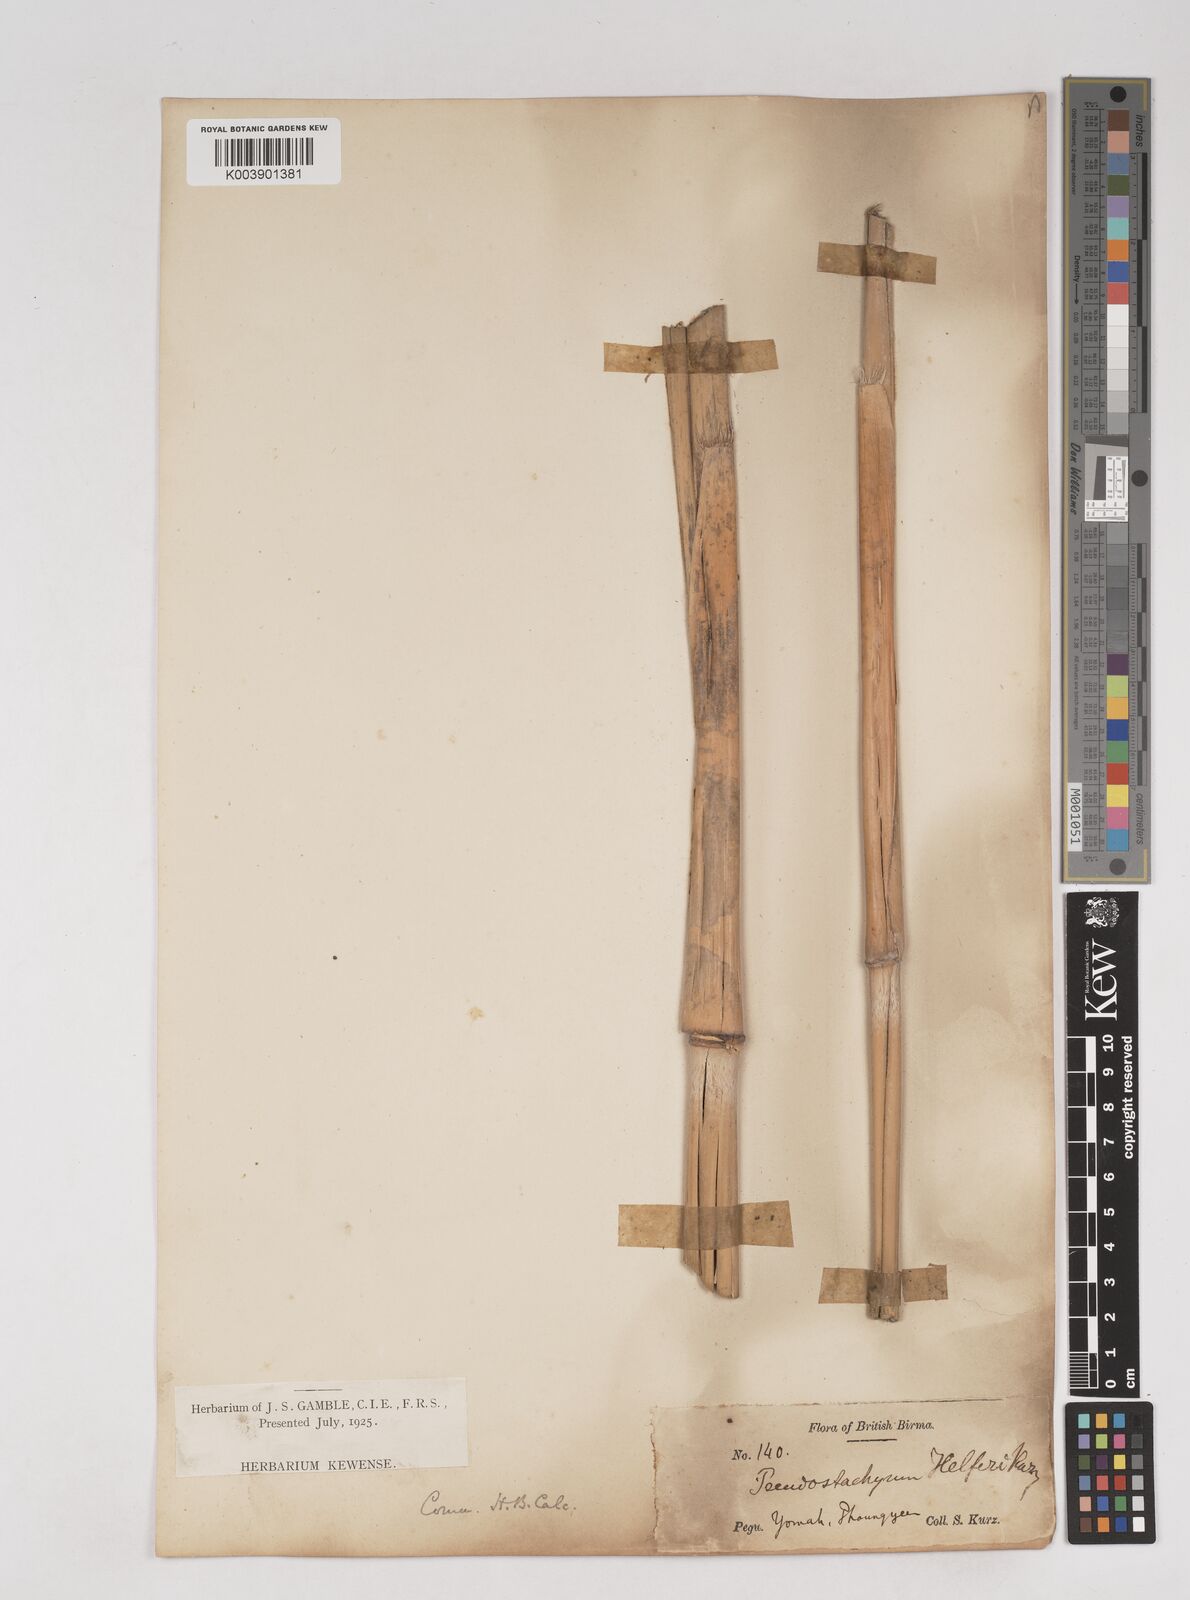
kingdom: Plantae
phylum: Tracheophyta
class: Liliopsida
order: Poales
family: Poaceae
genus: Schizostachyum
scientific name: Schizostachyum helferi
